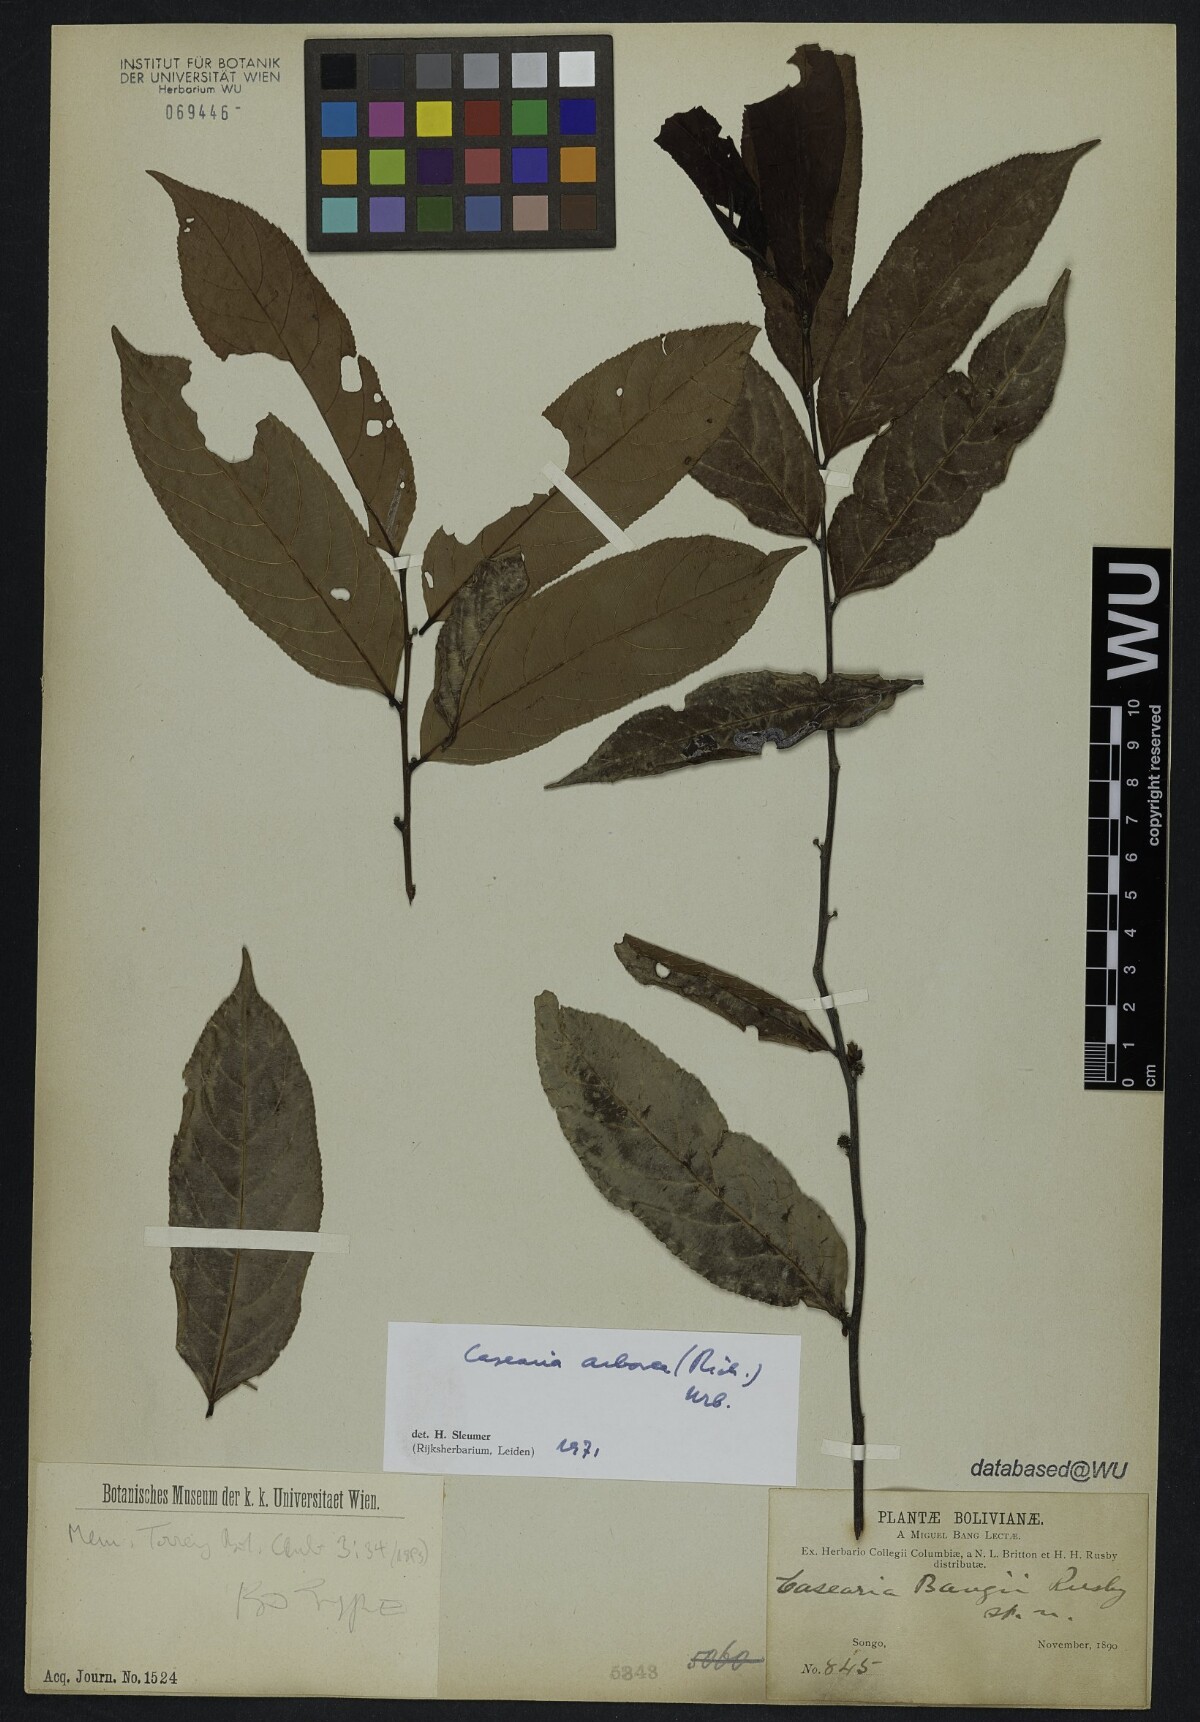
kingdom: Plantae
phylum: Tracheophyta
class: Magnoliopsida
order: Malpighiales
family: Salicaceae
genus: Casearia
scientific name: Casearia arborea
